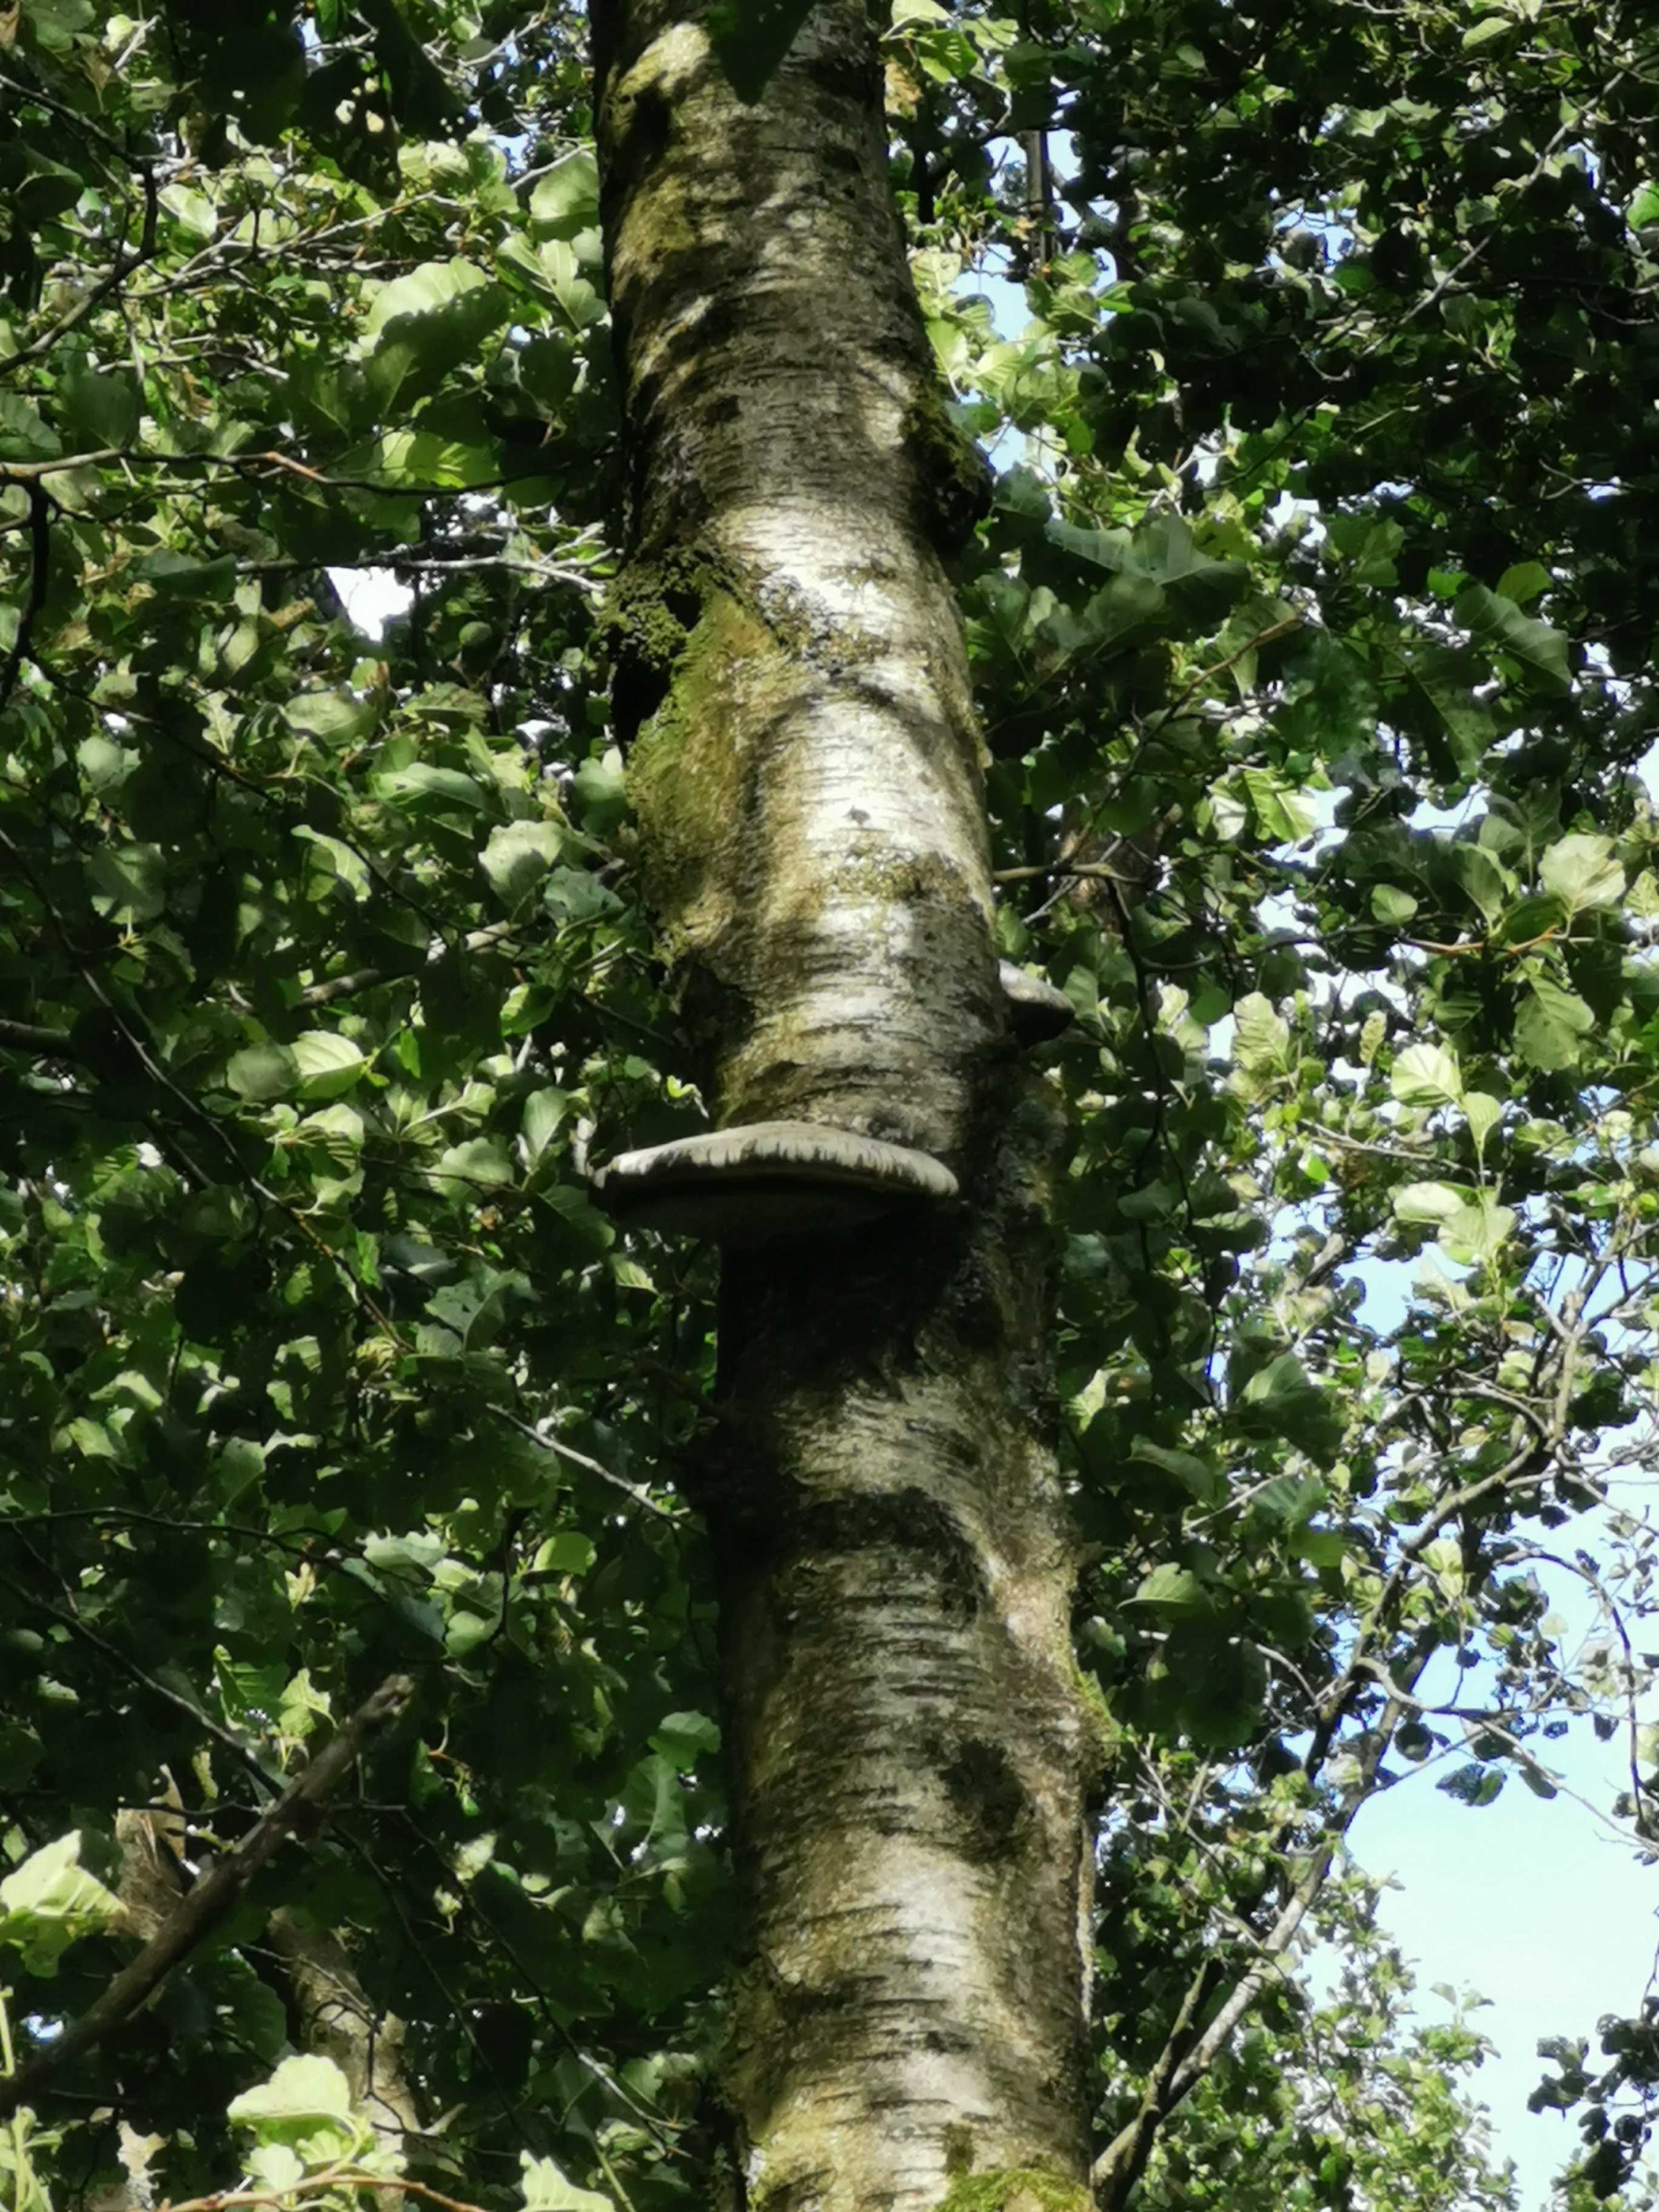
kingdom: Fungi
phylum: Basidiomycota
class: Agaricomycetes
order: Polyporales
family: Fomitopsidaceae
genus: Fomitopsis
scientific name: Fomitopsis betulina
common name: birkeporesvamp
